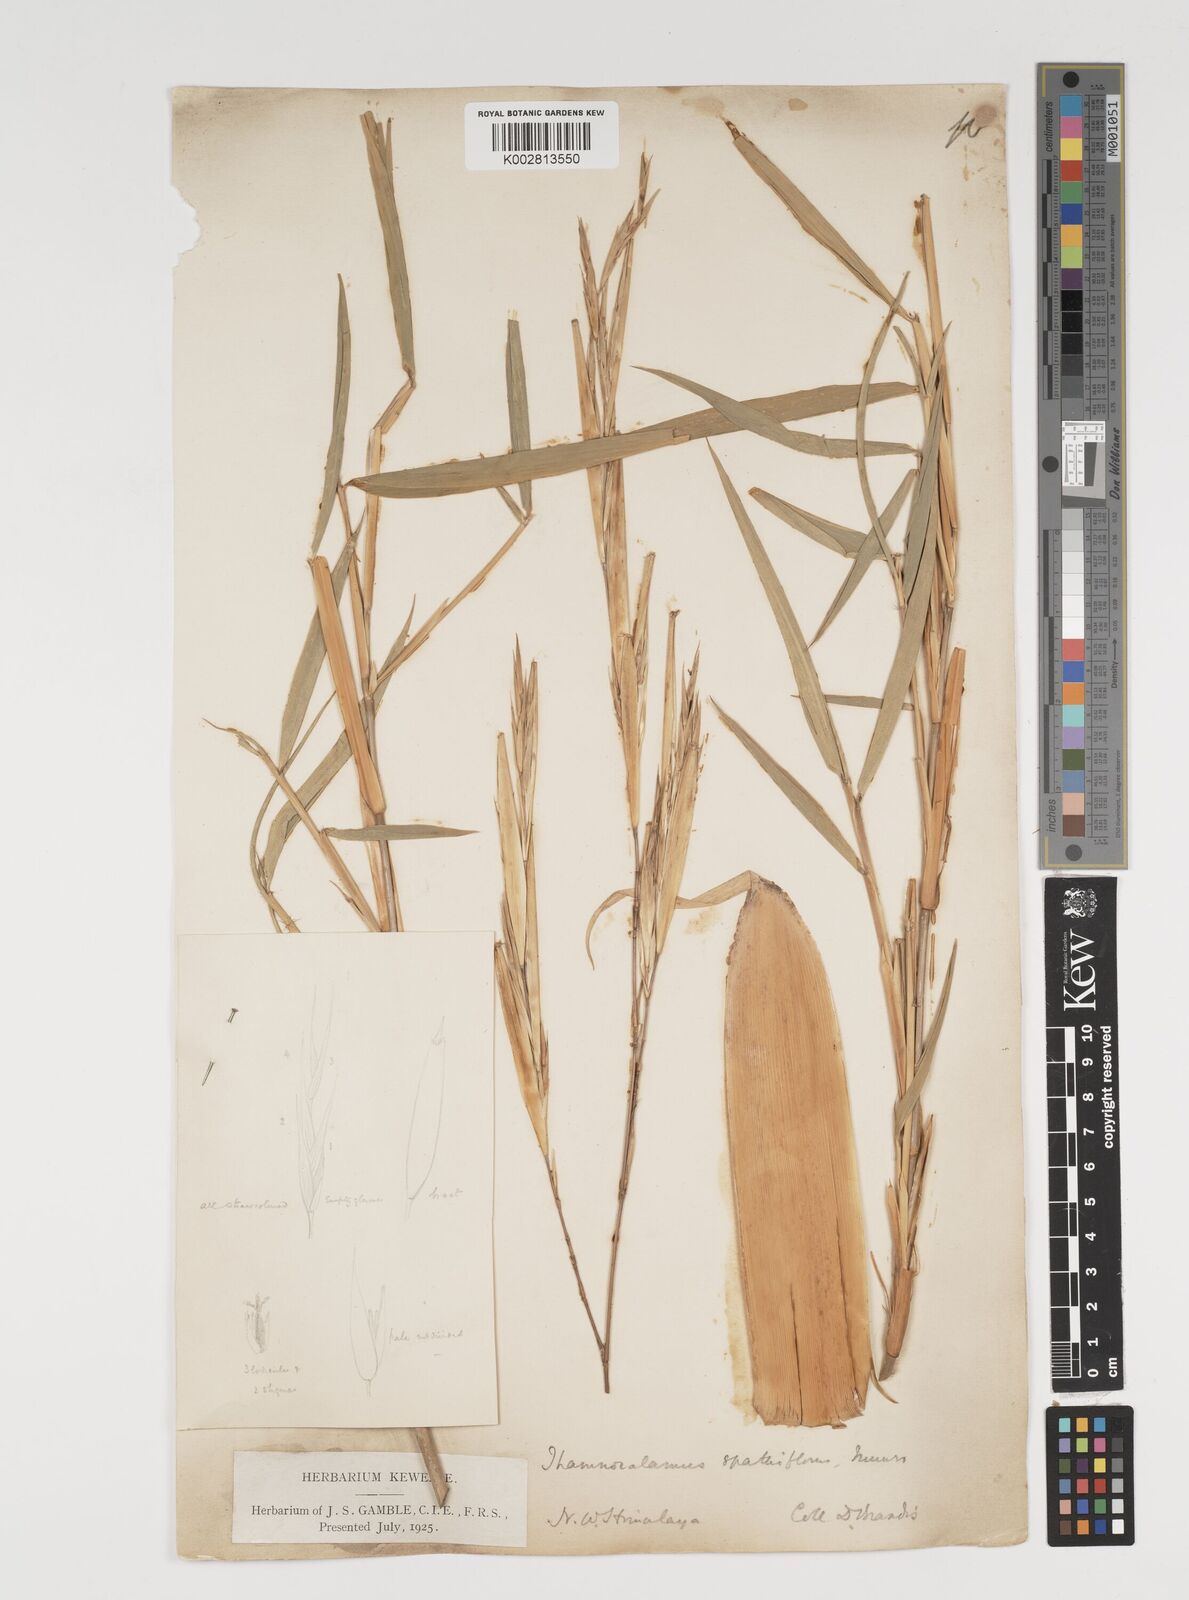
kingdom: Plantae
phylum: Tracheophyta
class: Liliopsida
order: Poales
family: Poaceae
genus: Thamnocalamus
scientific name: Thamnocalamus spathiflorus
